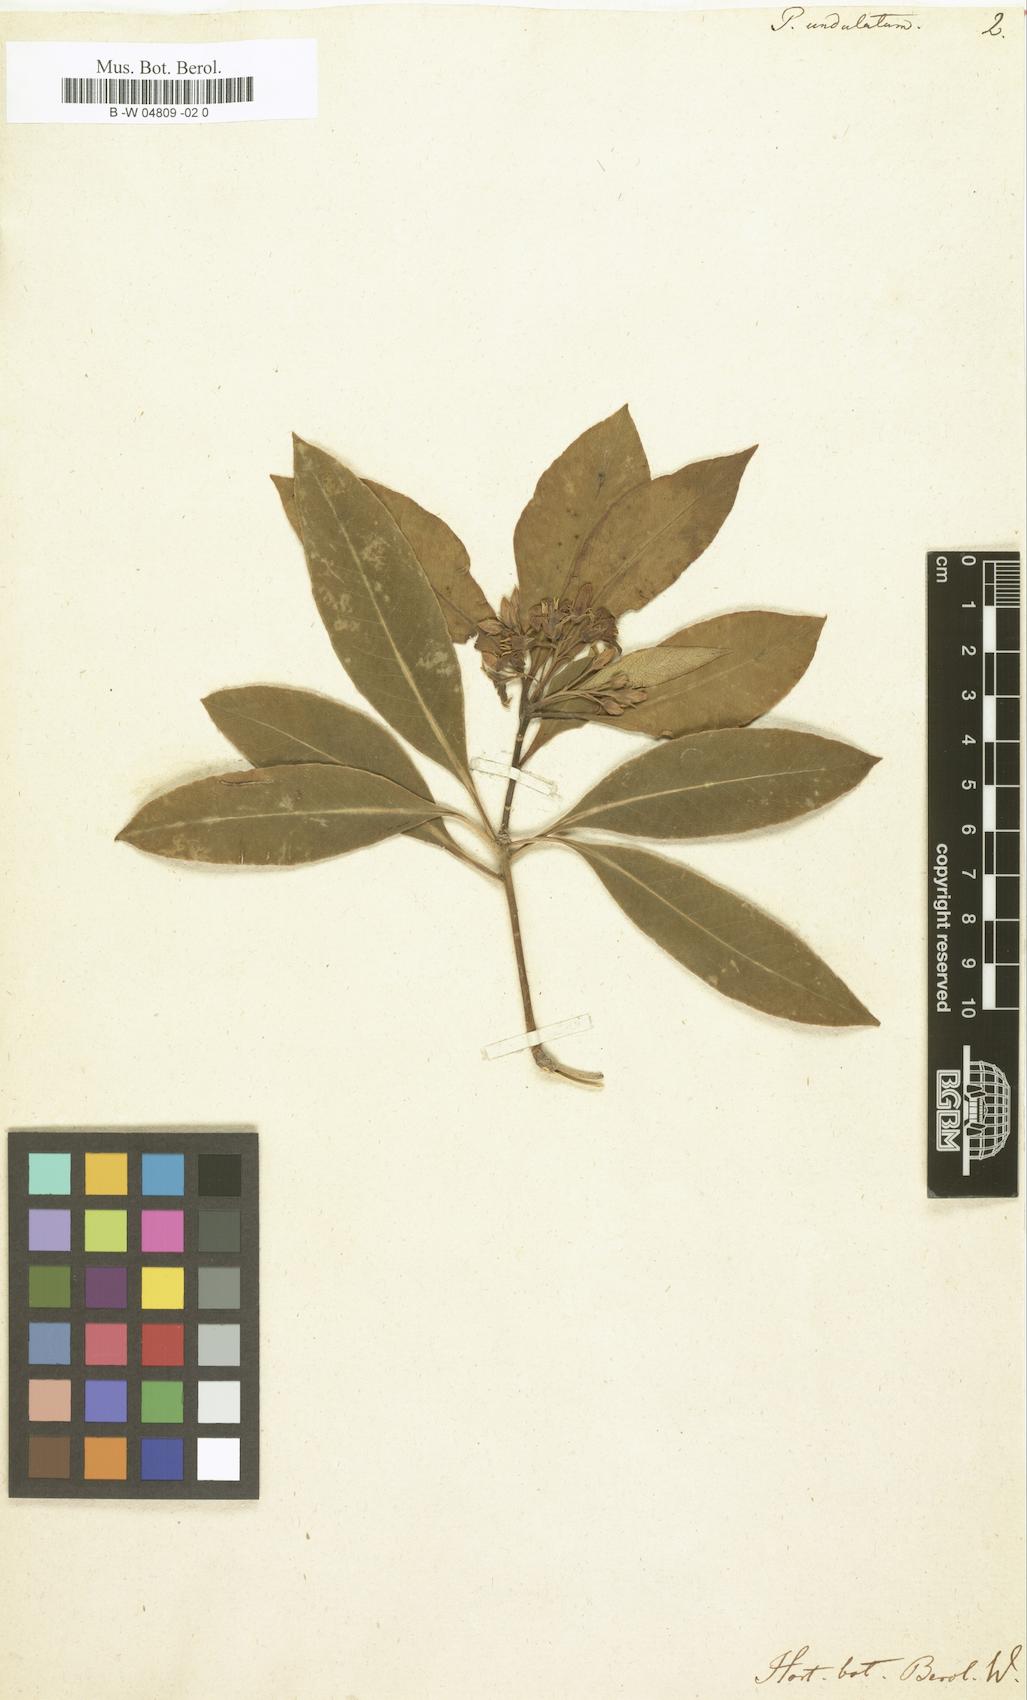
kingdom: Plantae
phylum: Tracheophyta
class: Magnoliopsida
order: Apiales
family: Pittosporaceae
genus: Pittosporum
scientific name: Pittosporum undulatum
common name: Australian cheesewood
